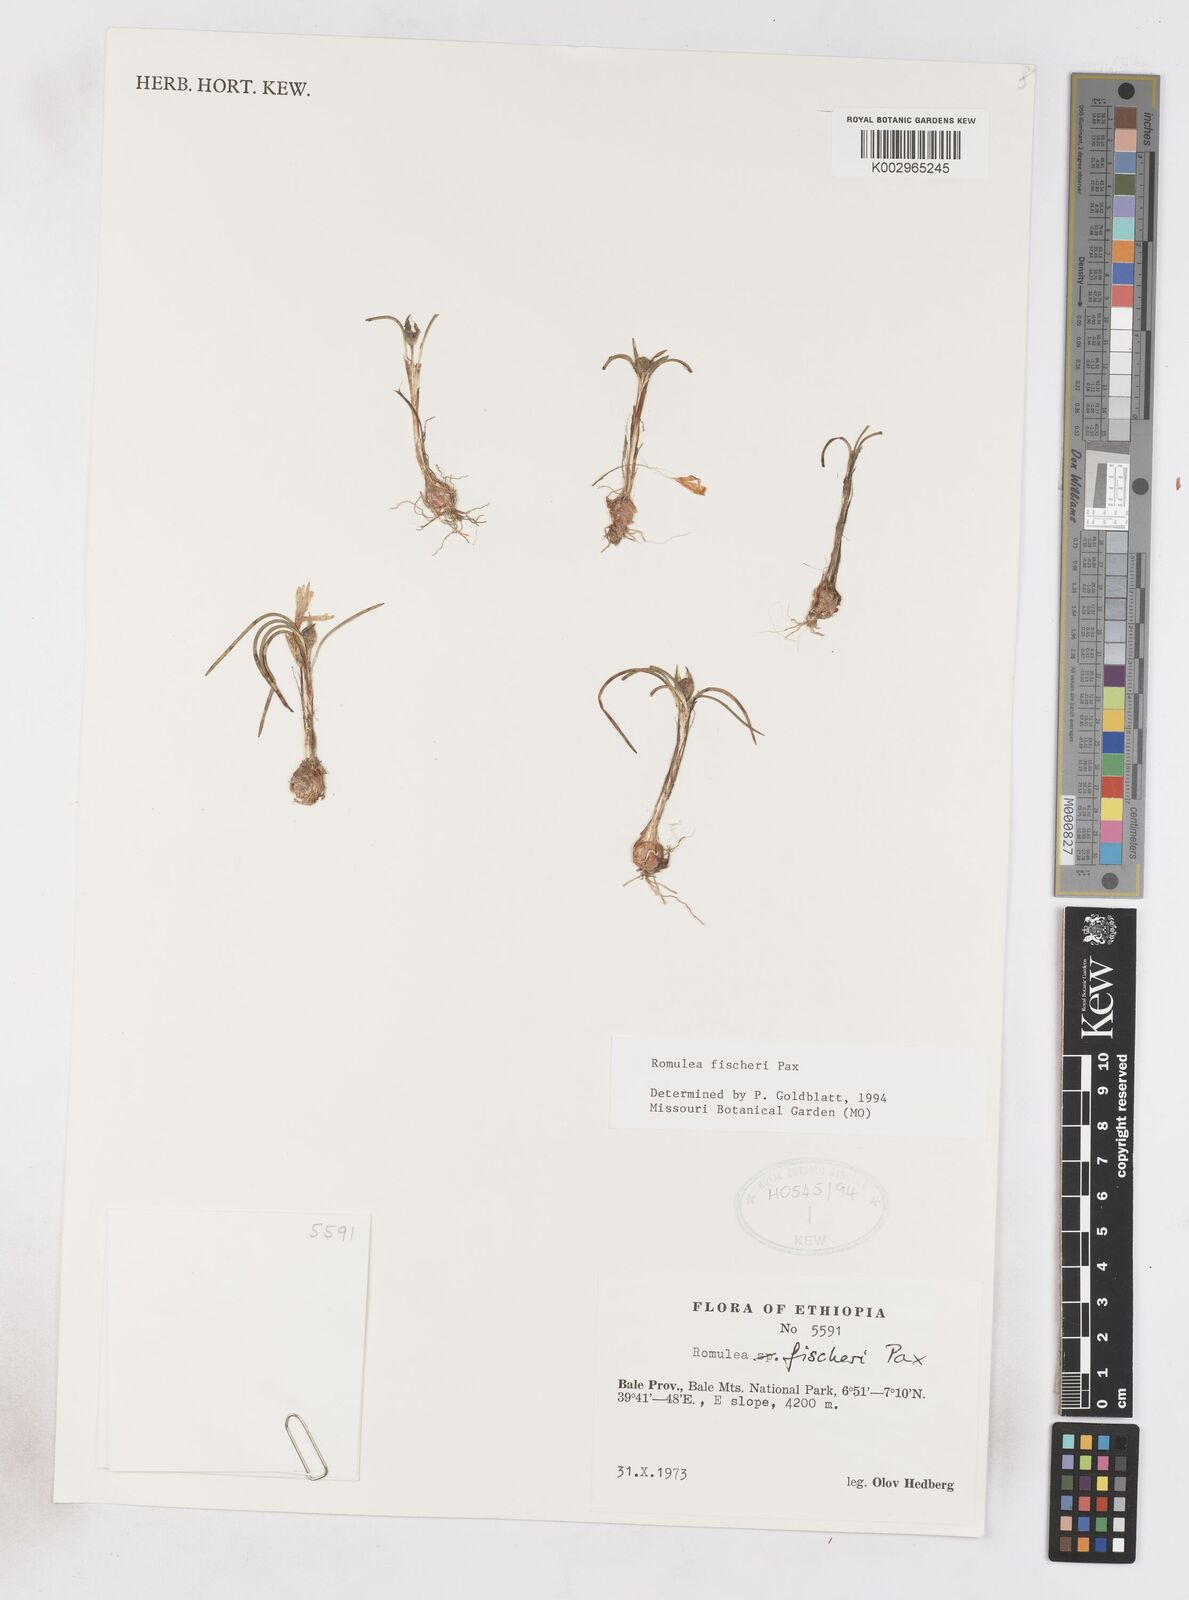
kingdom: Plantae
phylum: Tracheophyta
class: Liliopsida
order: Asparagales
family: Iridaceae
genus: Romulea
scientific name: Romulea fischeri
